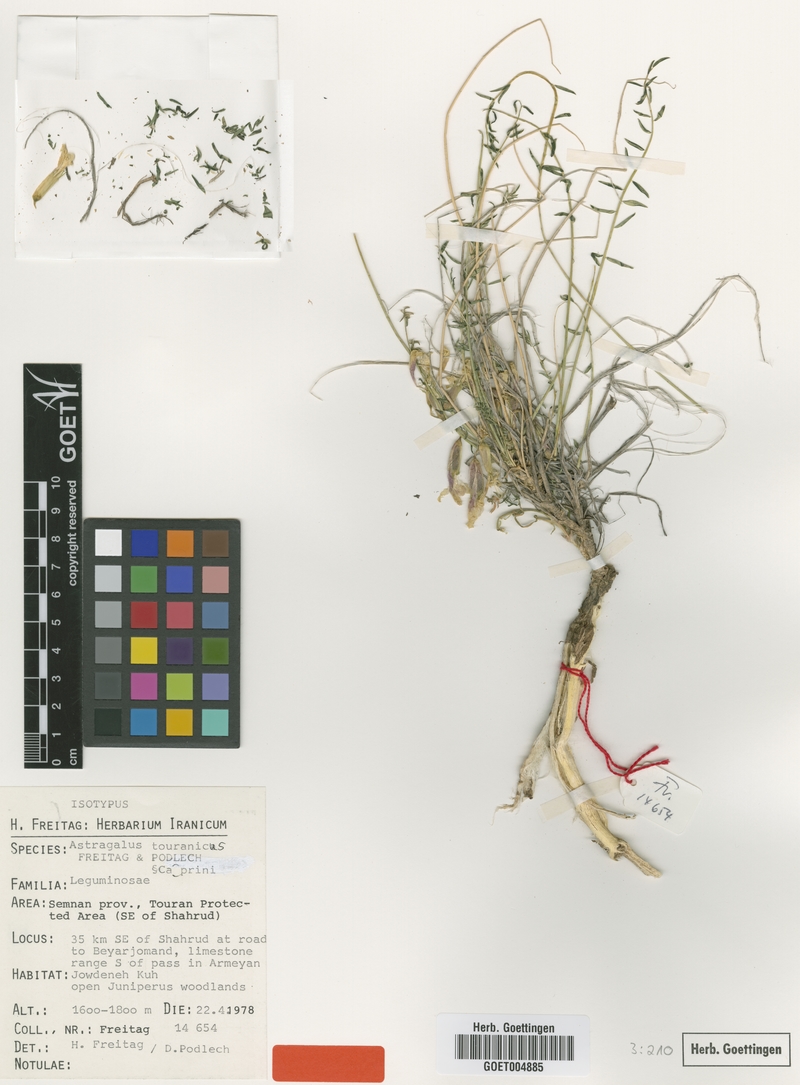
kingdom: Plantae
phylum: Tracheophyta
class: Magnoliopsida
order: Fabales
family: Fabaceae
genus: Astragalus
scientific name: Astragalus touranicus
